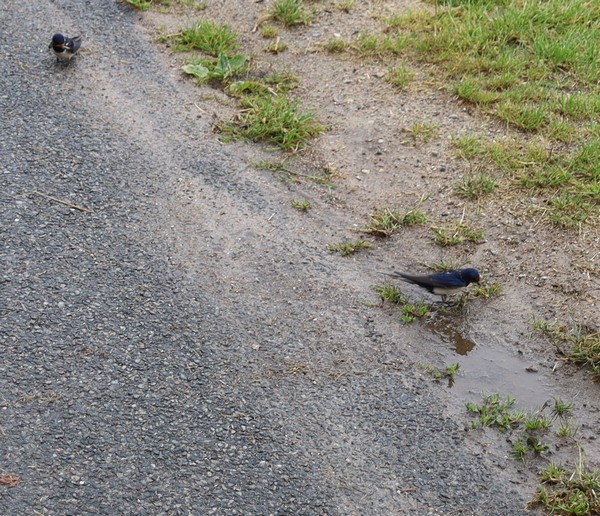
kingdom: Animalia
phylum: Chordata
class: Aves
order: Passeriformes
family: Hirundinidae
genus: Hirundo
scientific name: Hirundo rustica
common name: Landsvale
